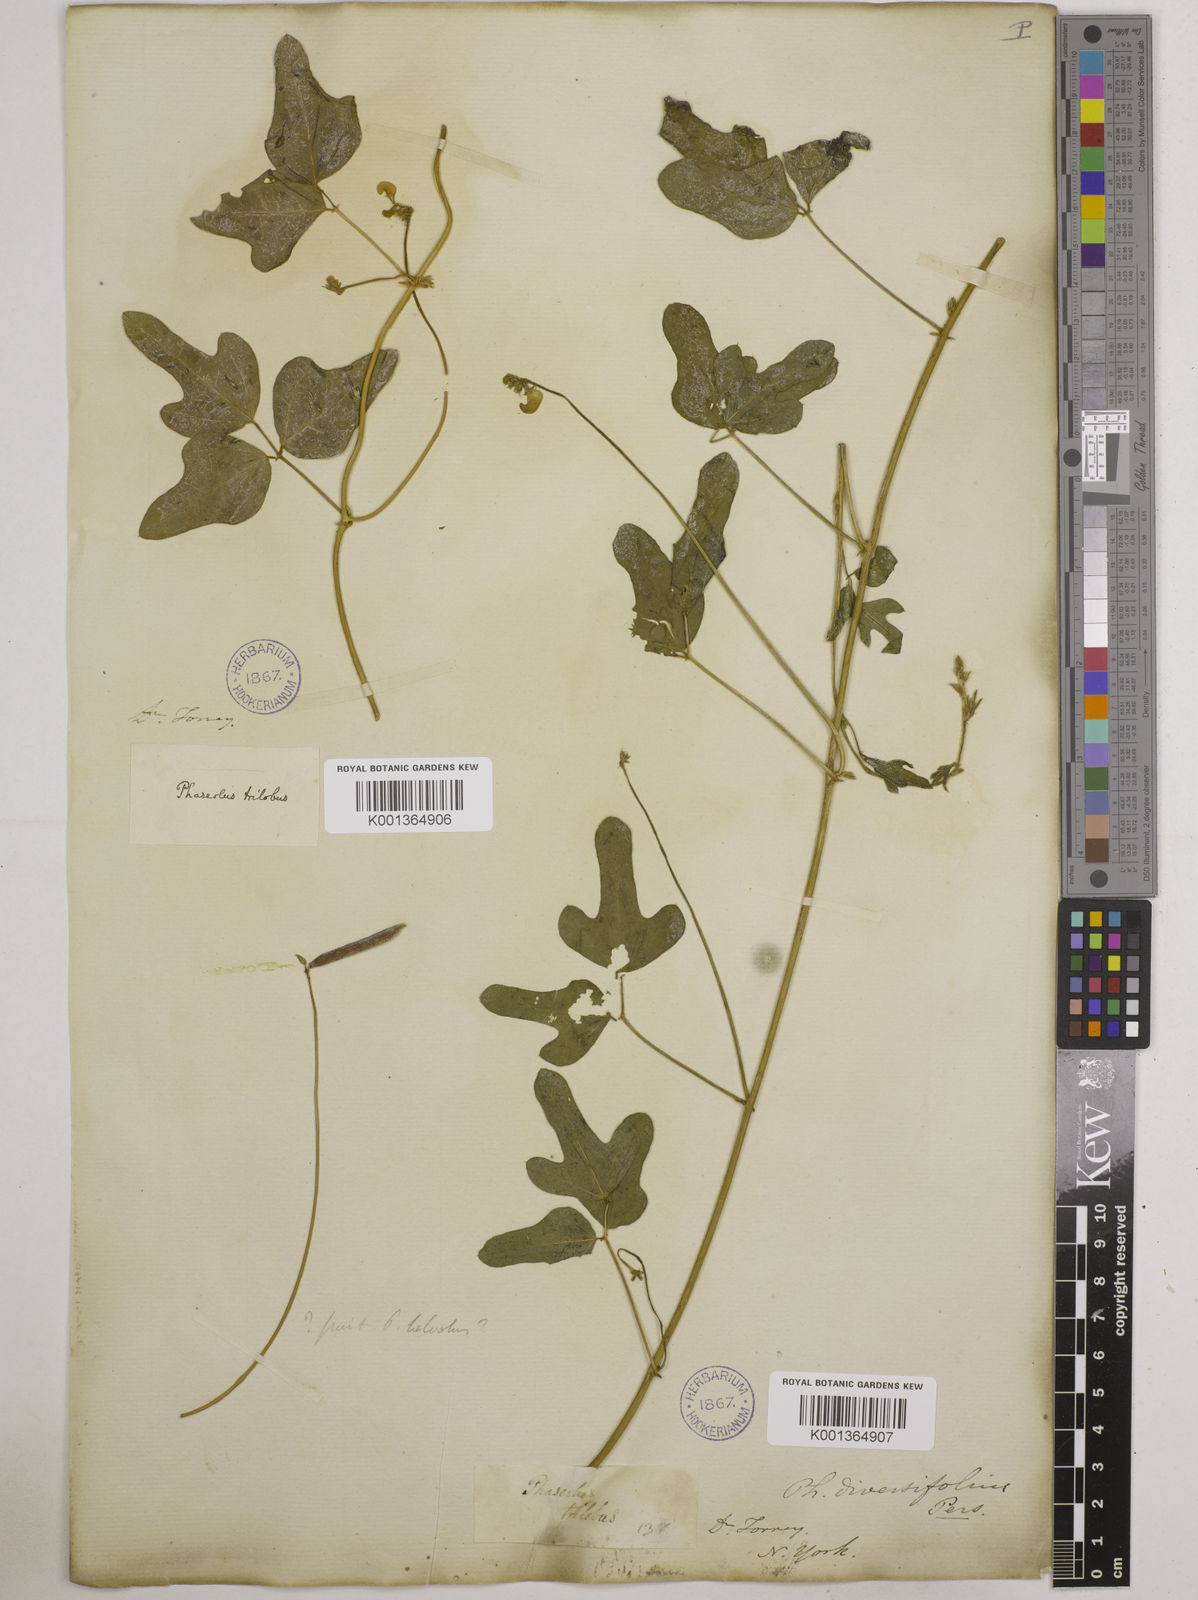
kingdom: Plantae
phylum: Tracheophyta
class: Magnoliopsida
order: Fabales
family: Fabaceae
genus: Strophostyles
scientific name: Strophostyles
